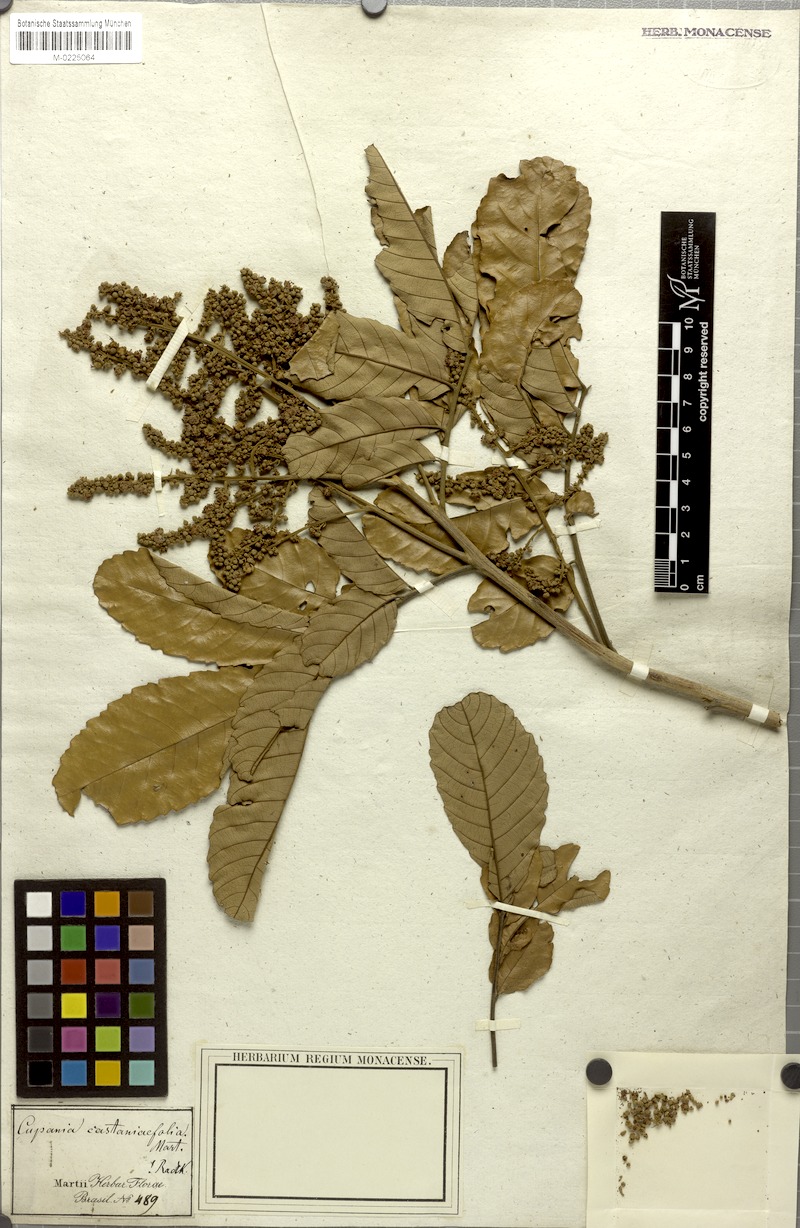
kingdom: Plantae
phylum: Tracheophyta
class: Magnoliopsida
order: Sapindales
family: Sapindaceae
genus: Cupania
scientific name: Cupania castaneifolia
